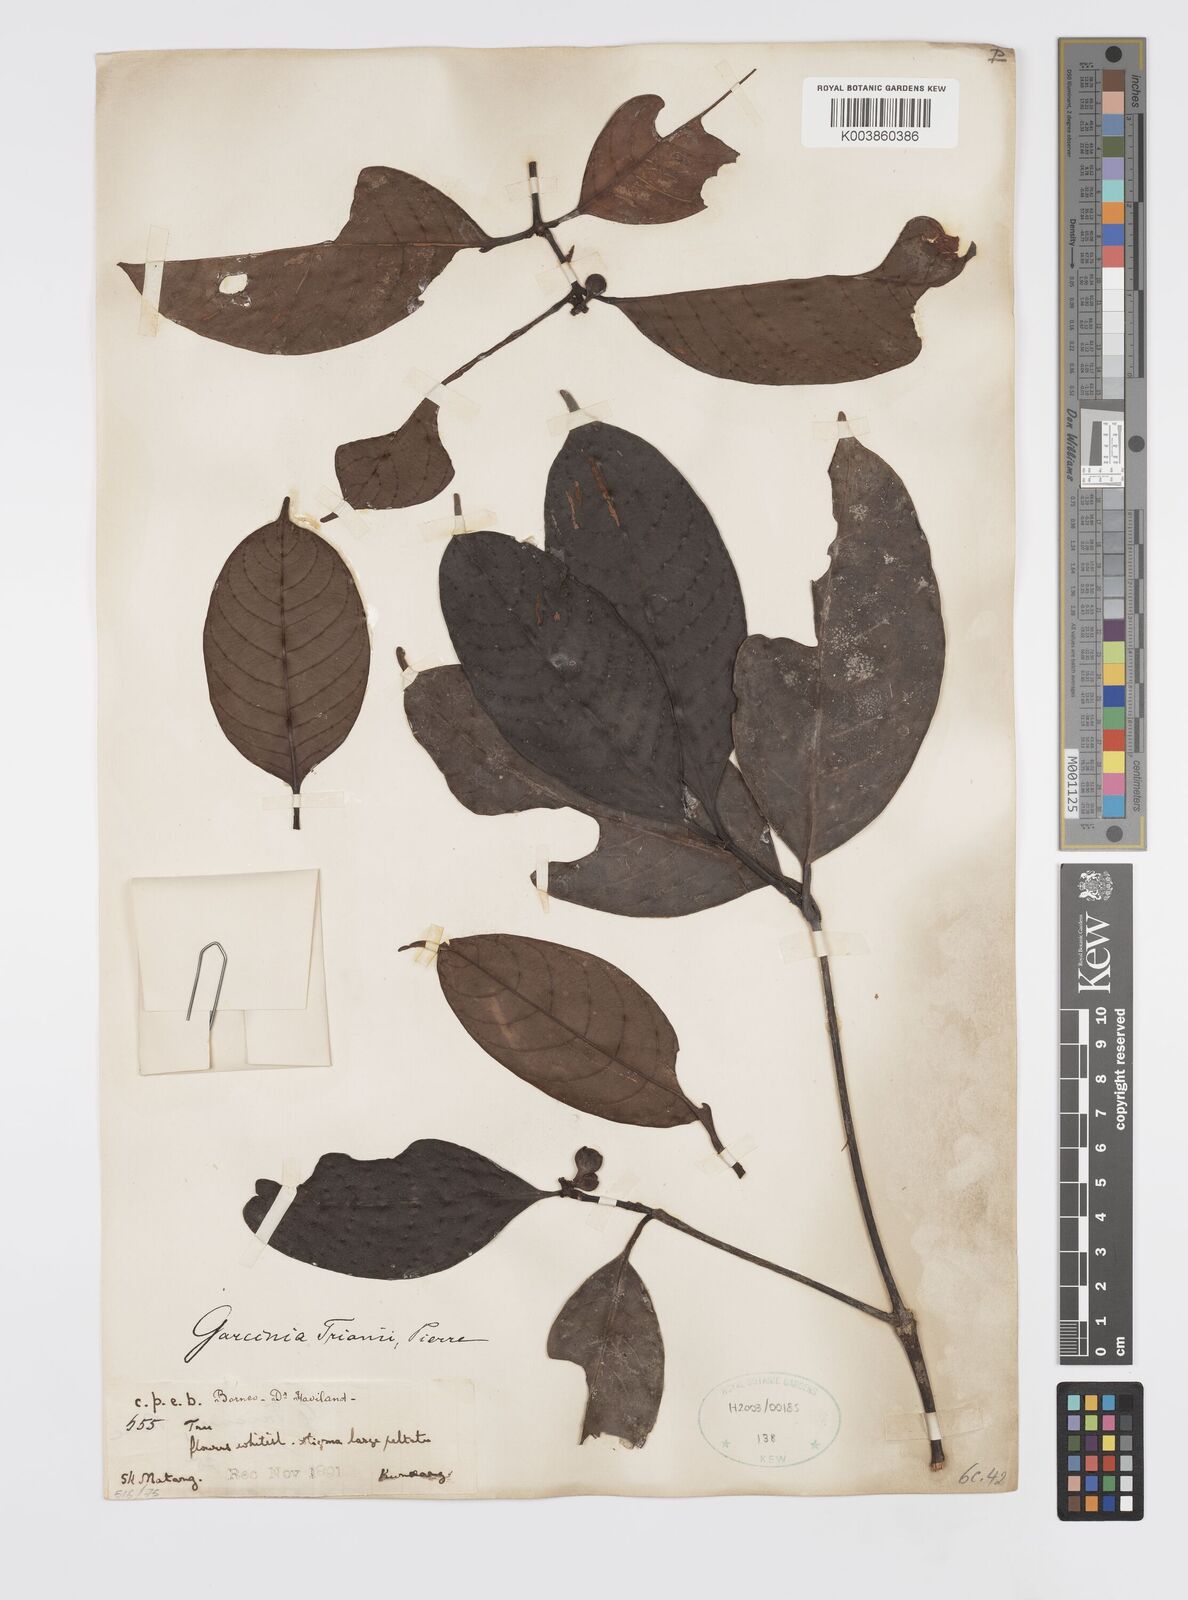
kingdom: Plantae
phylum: Tracheophyta
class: Magnoliopsida
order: Malpighiales
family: Clusiaceae
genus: Garcinia
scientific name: Garcinia trianii
